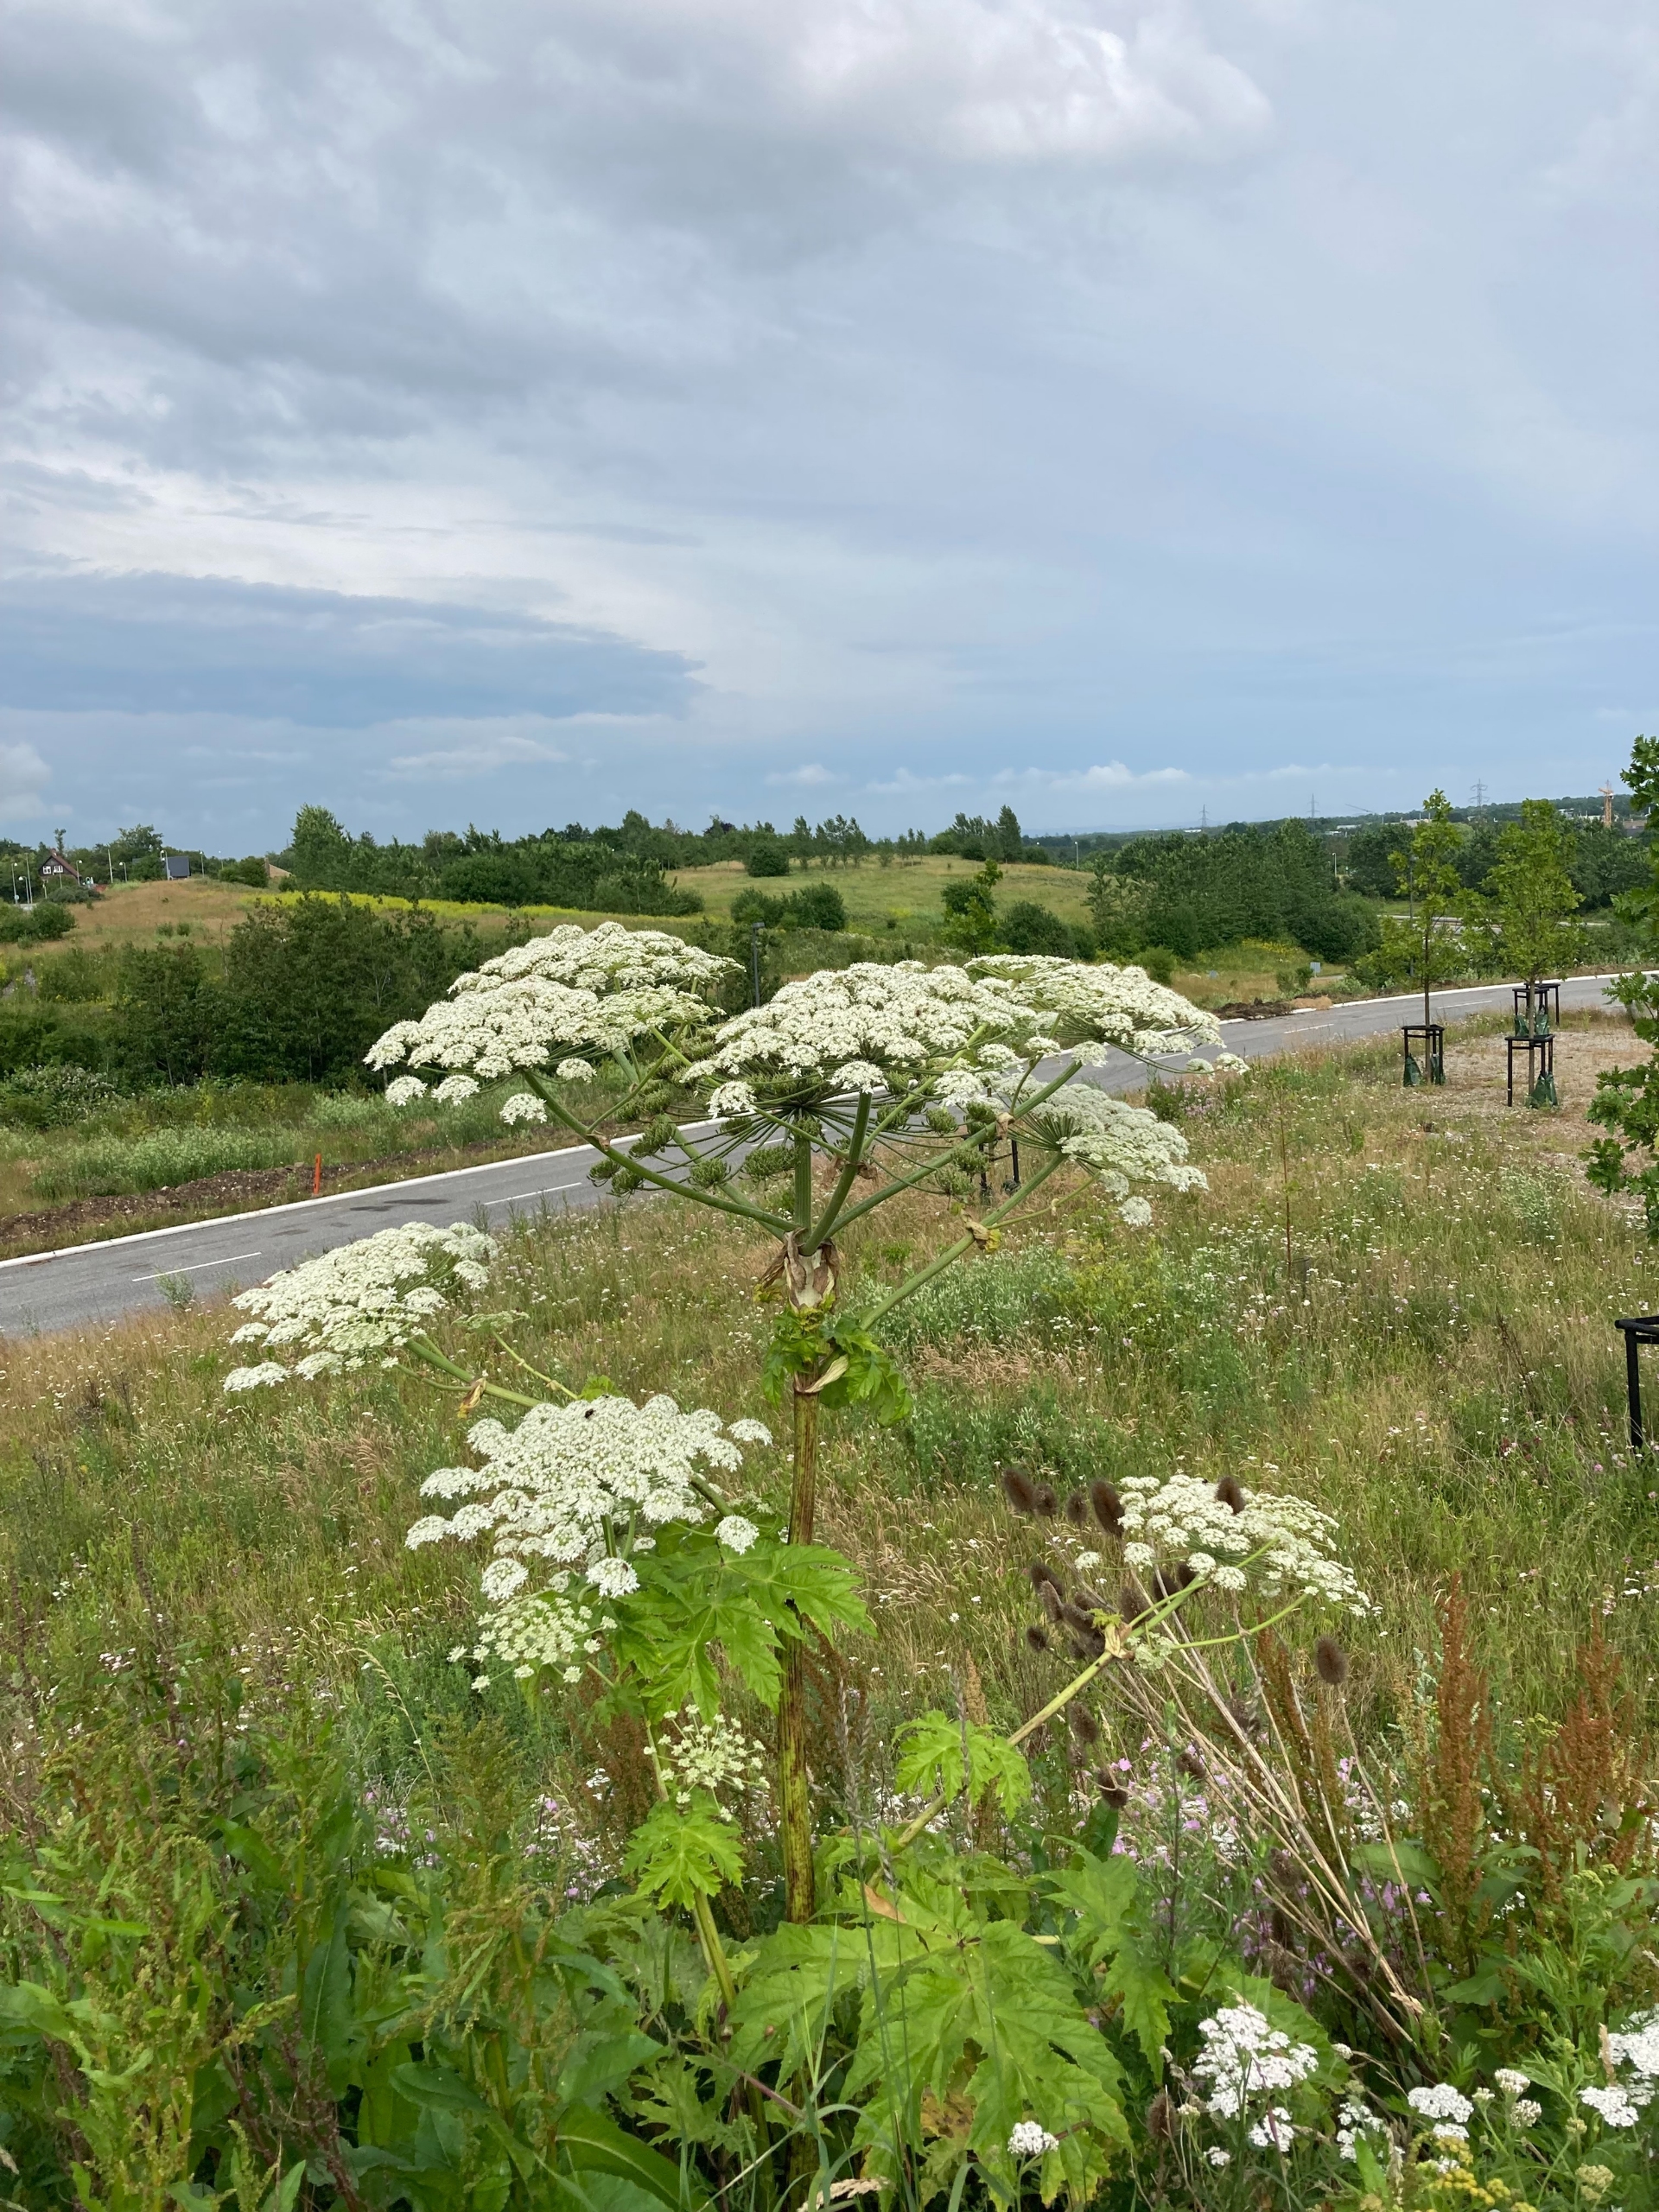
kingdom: Plantae
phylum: Tracheophyta
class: Magnoliopsida
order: Apiales
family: Apiaceae
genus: Heracleum
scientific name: Heracleum mantegazzianum
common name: Kæmpe-bjørneklo
